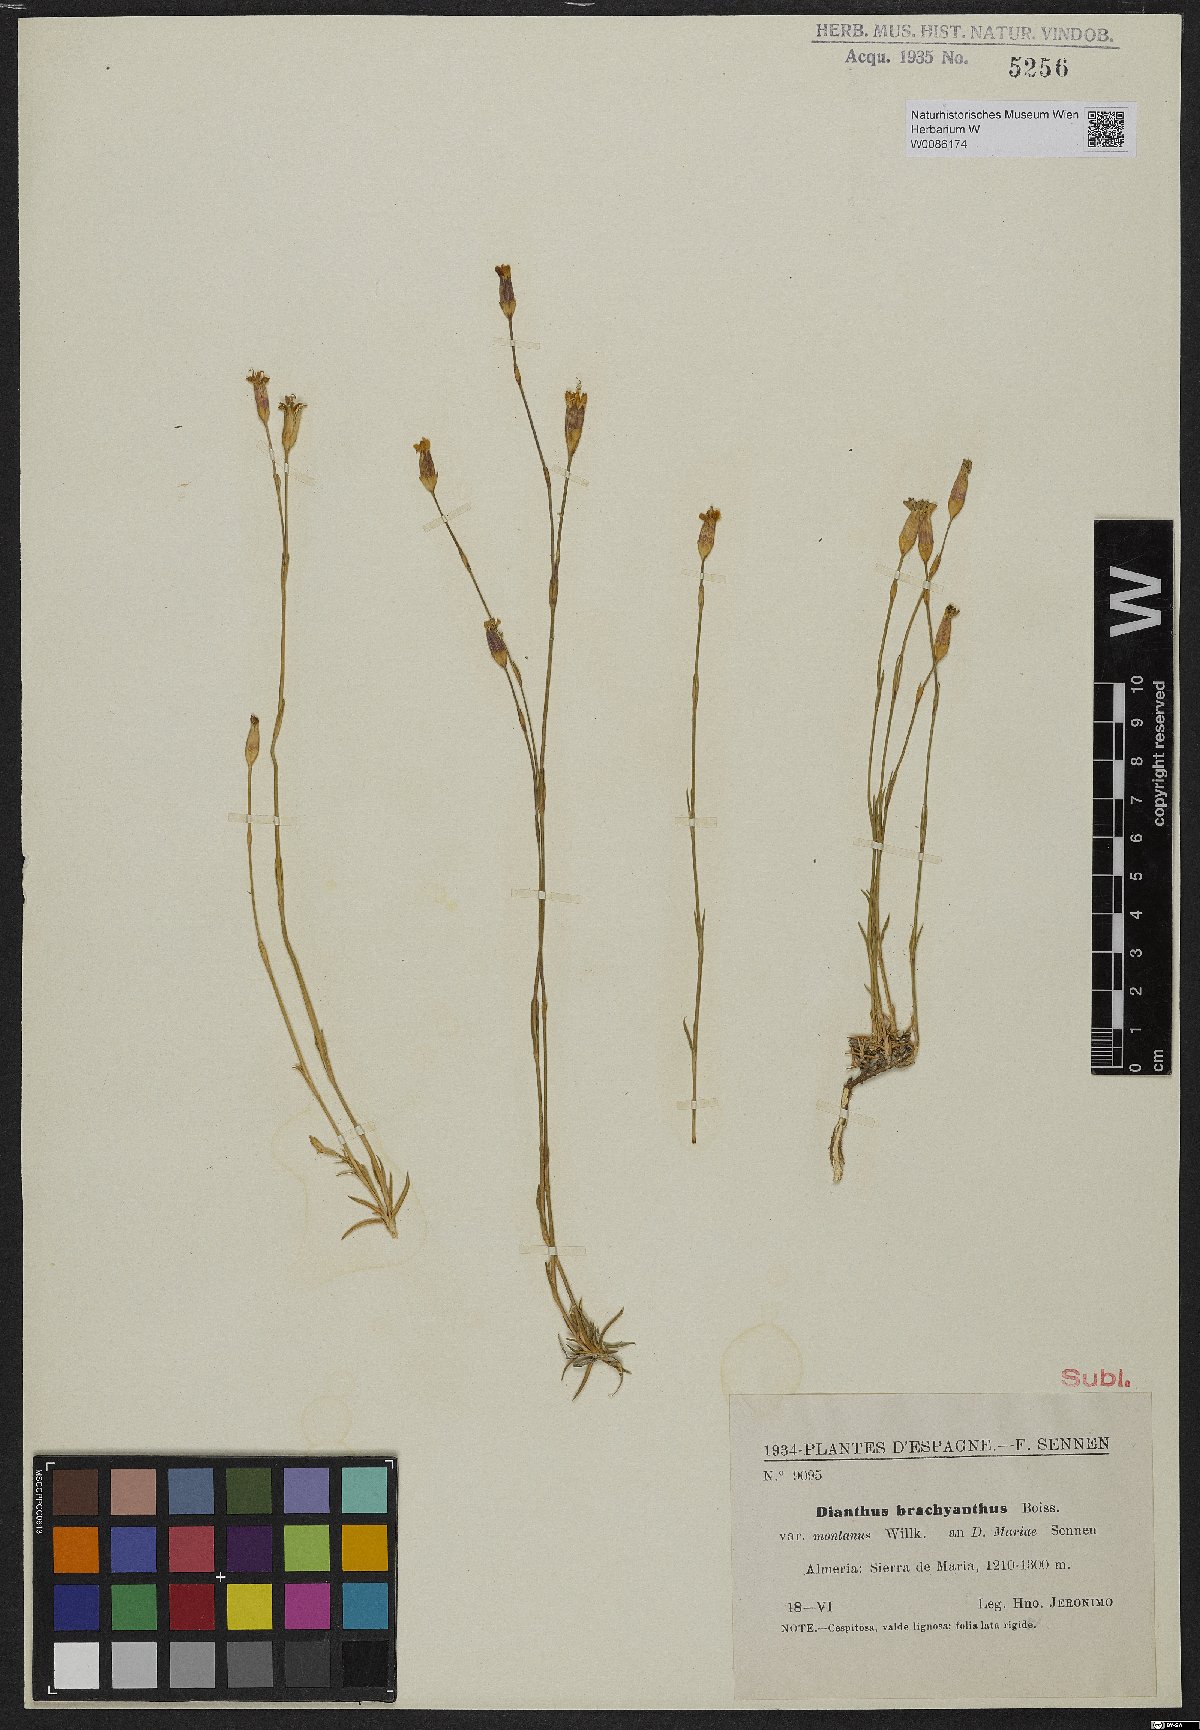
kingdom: Plantae
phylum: Tracheophyta
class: Magnoliopsida
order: Caryophyllales
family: Caryophyllaceae
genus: Dianthus
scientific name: Dianthus subacaulis
